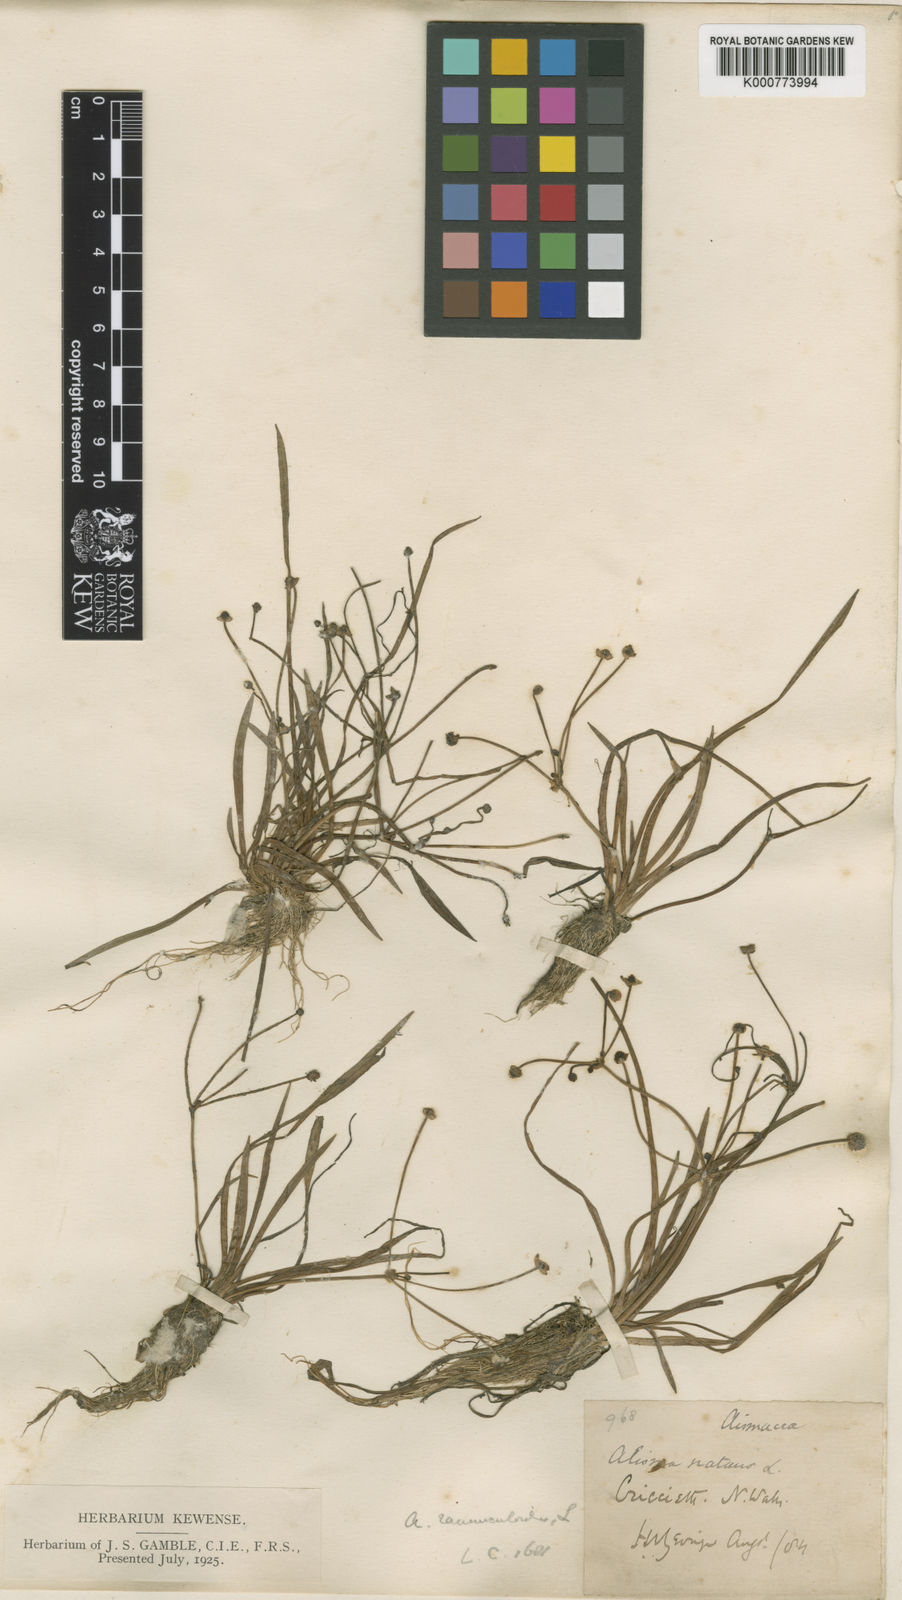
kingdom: Plantae
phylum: Tracheophyta
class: Liliopsida
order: Alismatales
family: Alismataceae
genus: Baldellia
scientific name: Baldellia ranunculoides
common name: Lesser water-plantain
